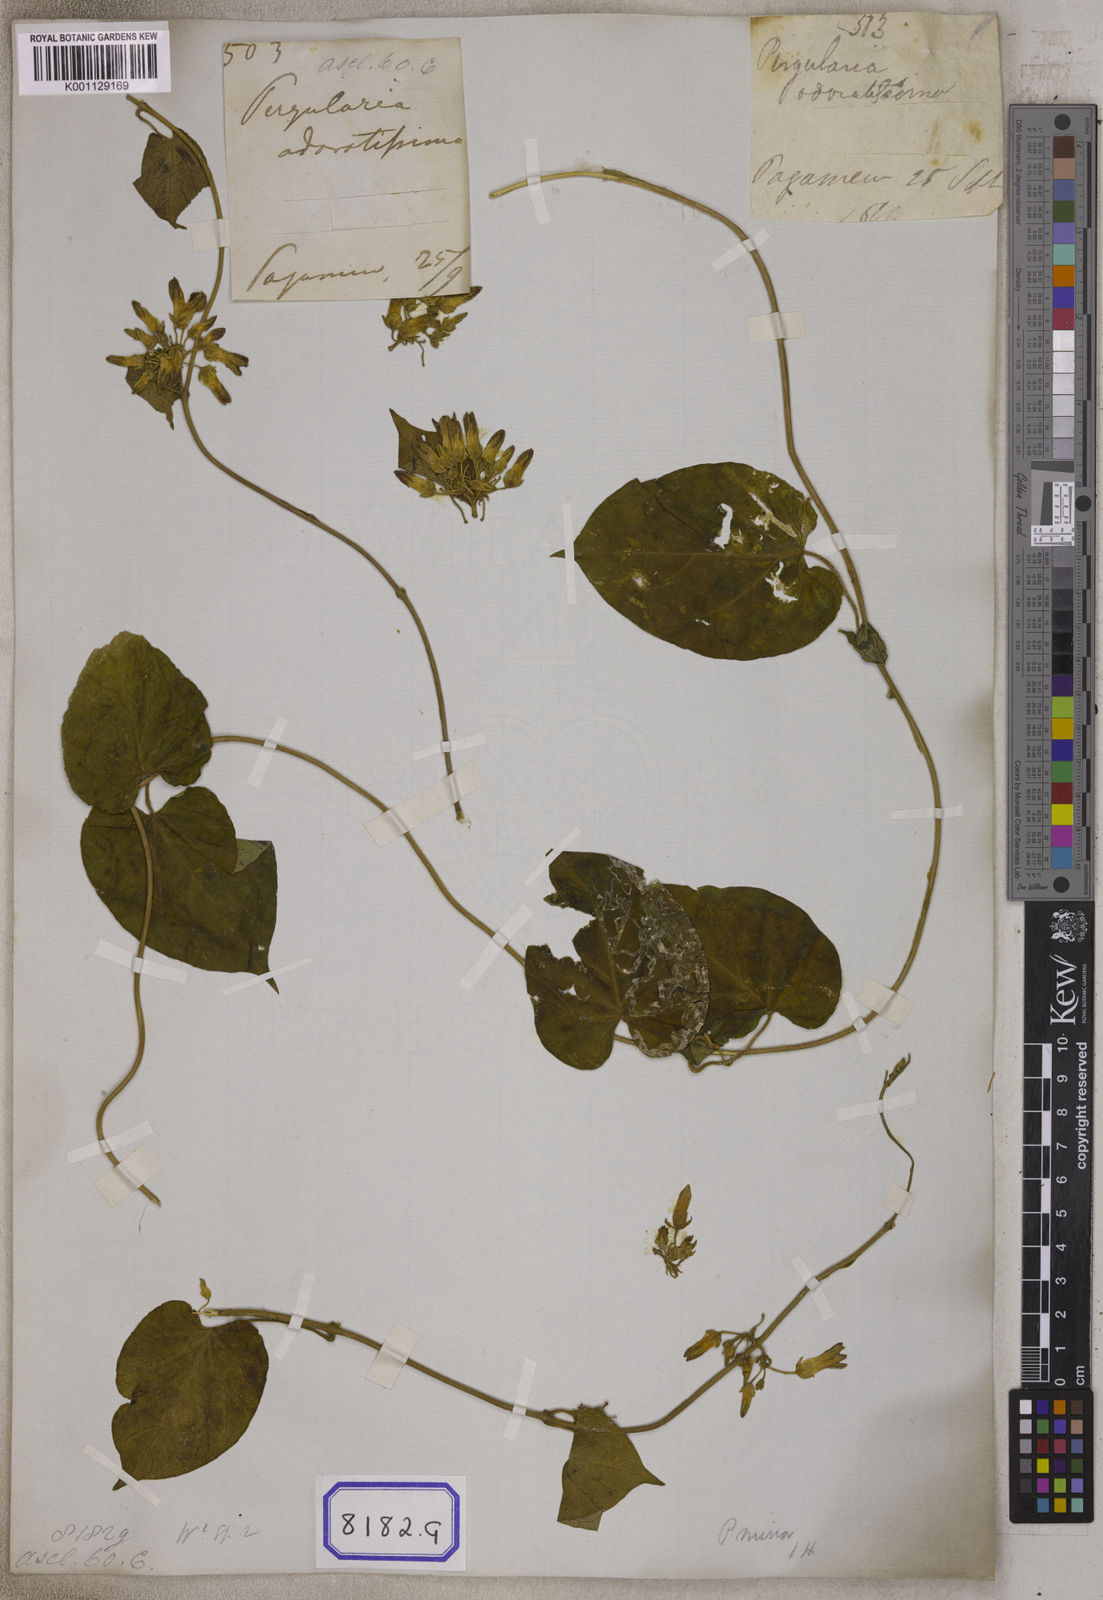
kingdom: Plantae
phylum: Tracheophyta
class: Magnoliopsida
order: Gentianales
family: Apocynaceae
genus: Telosma
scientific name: Telosma cordata
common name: Chinese-violet
